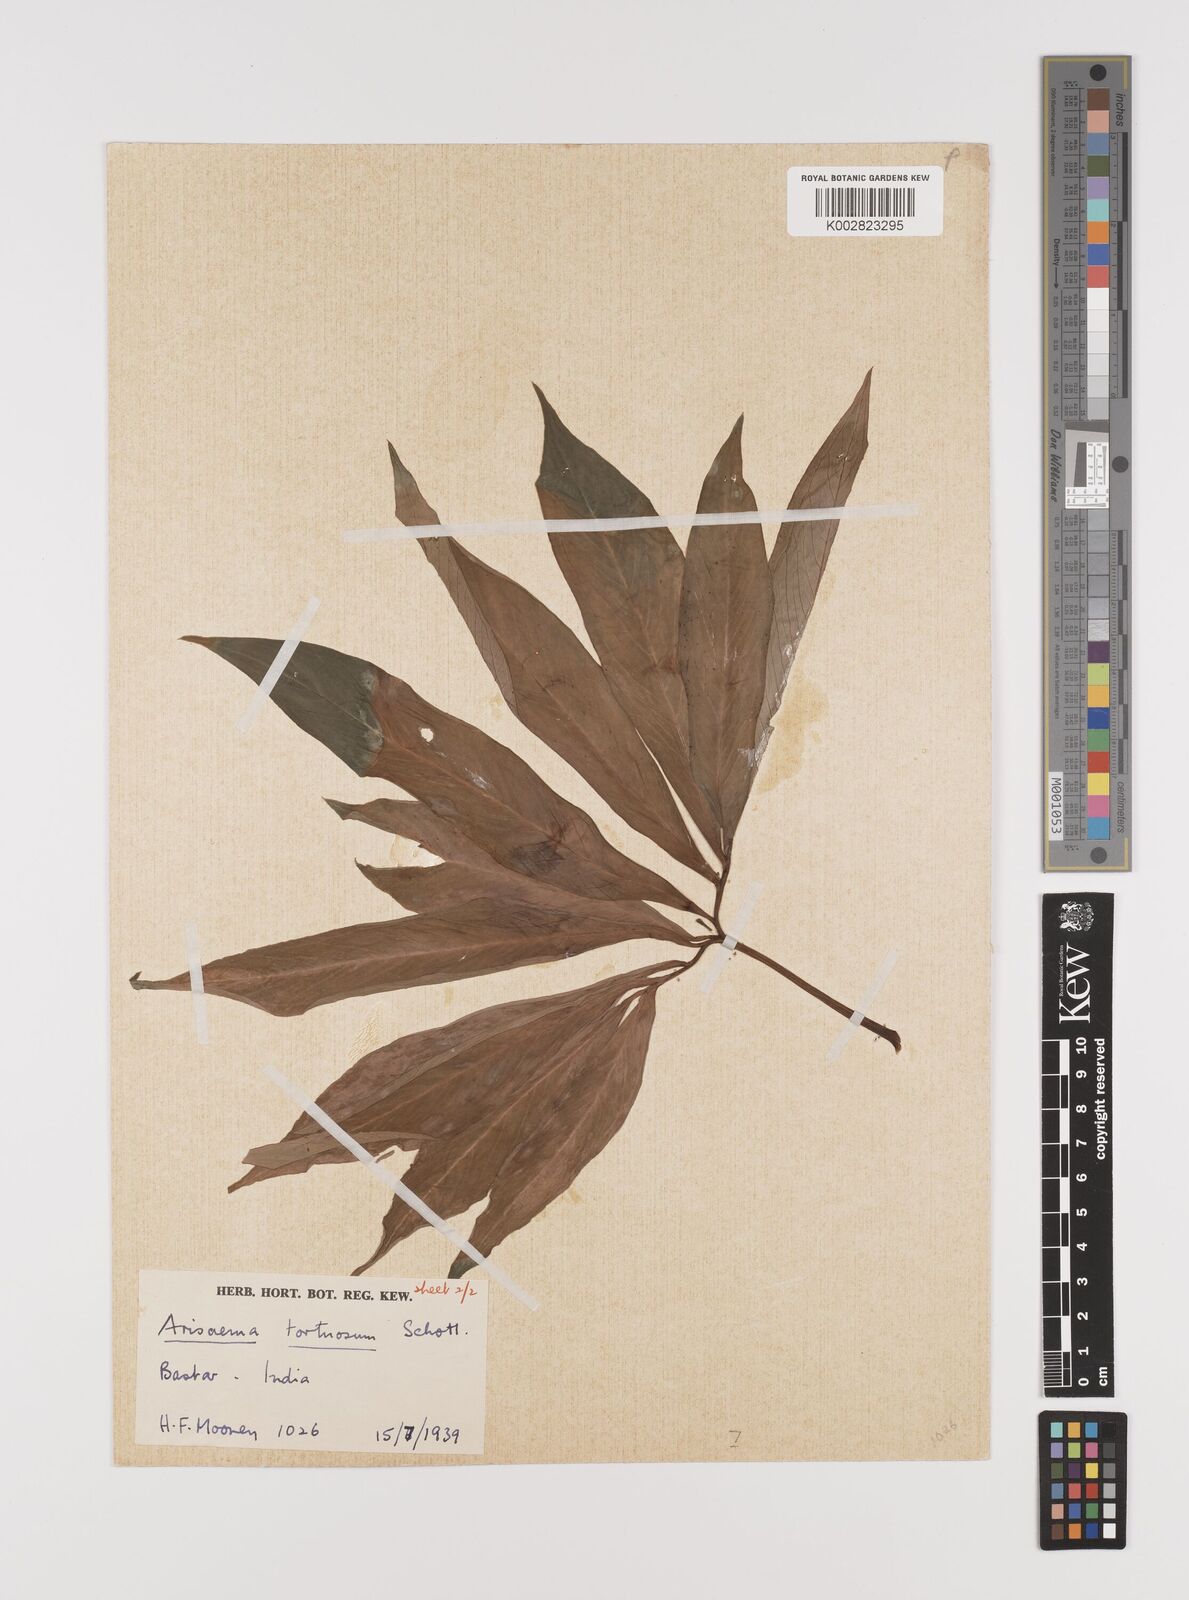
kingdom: Plantae
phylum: Tracheophyta
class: Liliopsida
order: Alismatales
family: Araceae
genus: Arisaema
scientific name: Arisaema tortuosum
